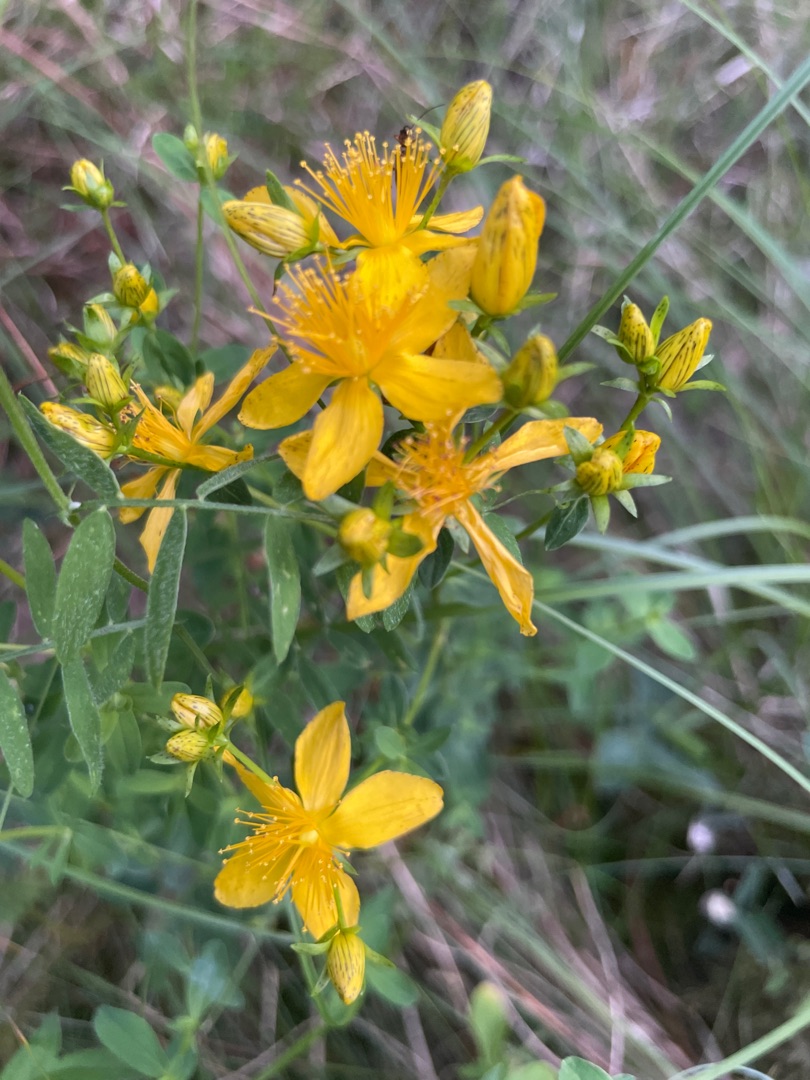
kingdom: Plantae
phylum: Tracheophyta
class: Magnoliopsida
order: Asterales
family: Campanulaceae
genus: Campanula
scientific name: Campanula rotundifolia
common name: Liden klokke
